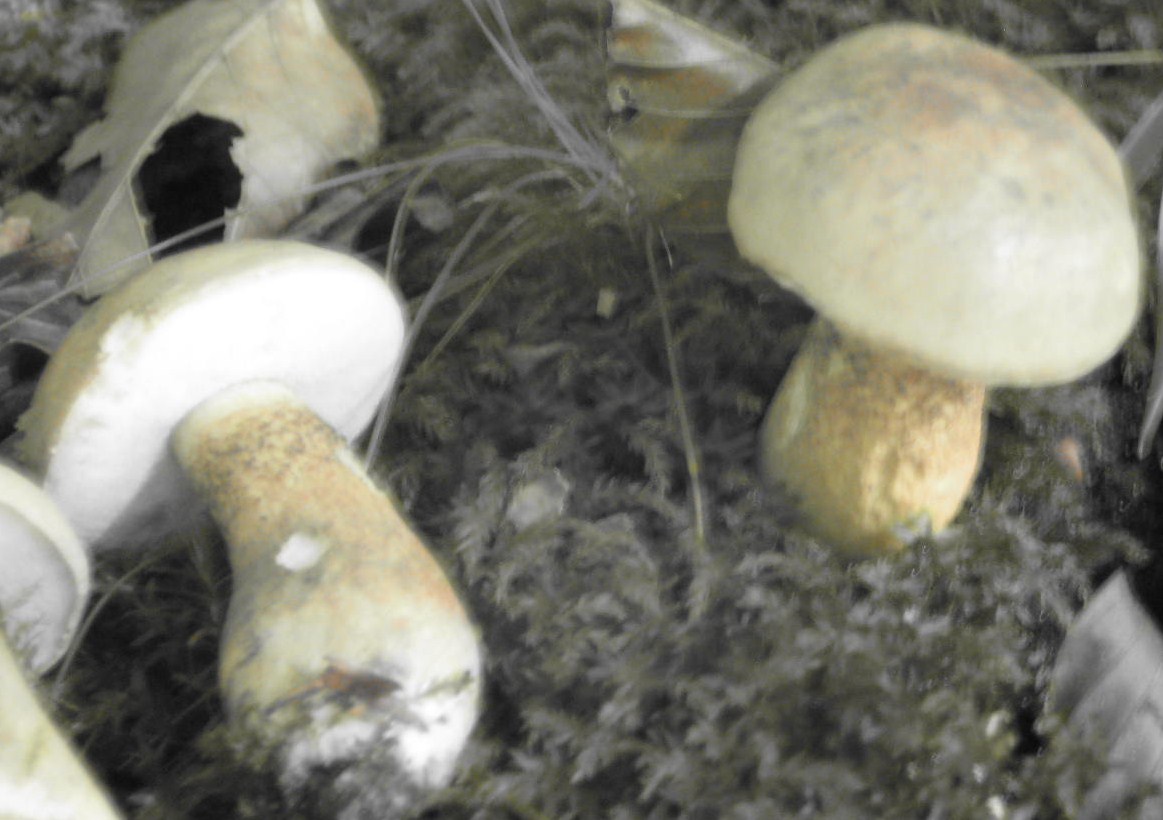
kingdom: Fungi
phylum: Basidiomycota
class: Agaricomycetes
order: Boletales
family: Boletaceae
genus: Tylopilus
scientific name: Tylopilus felleus
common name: galderørhat
